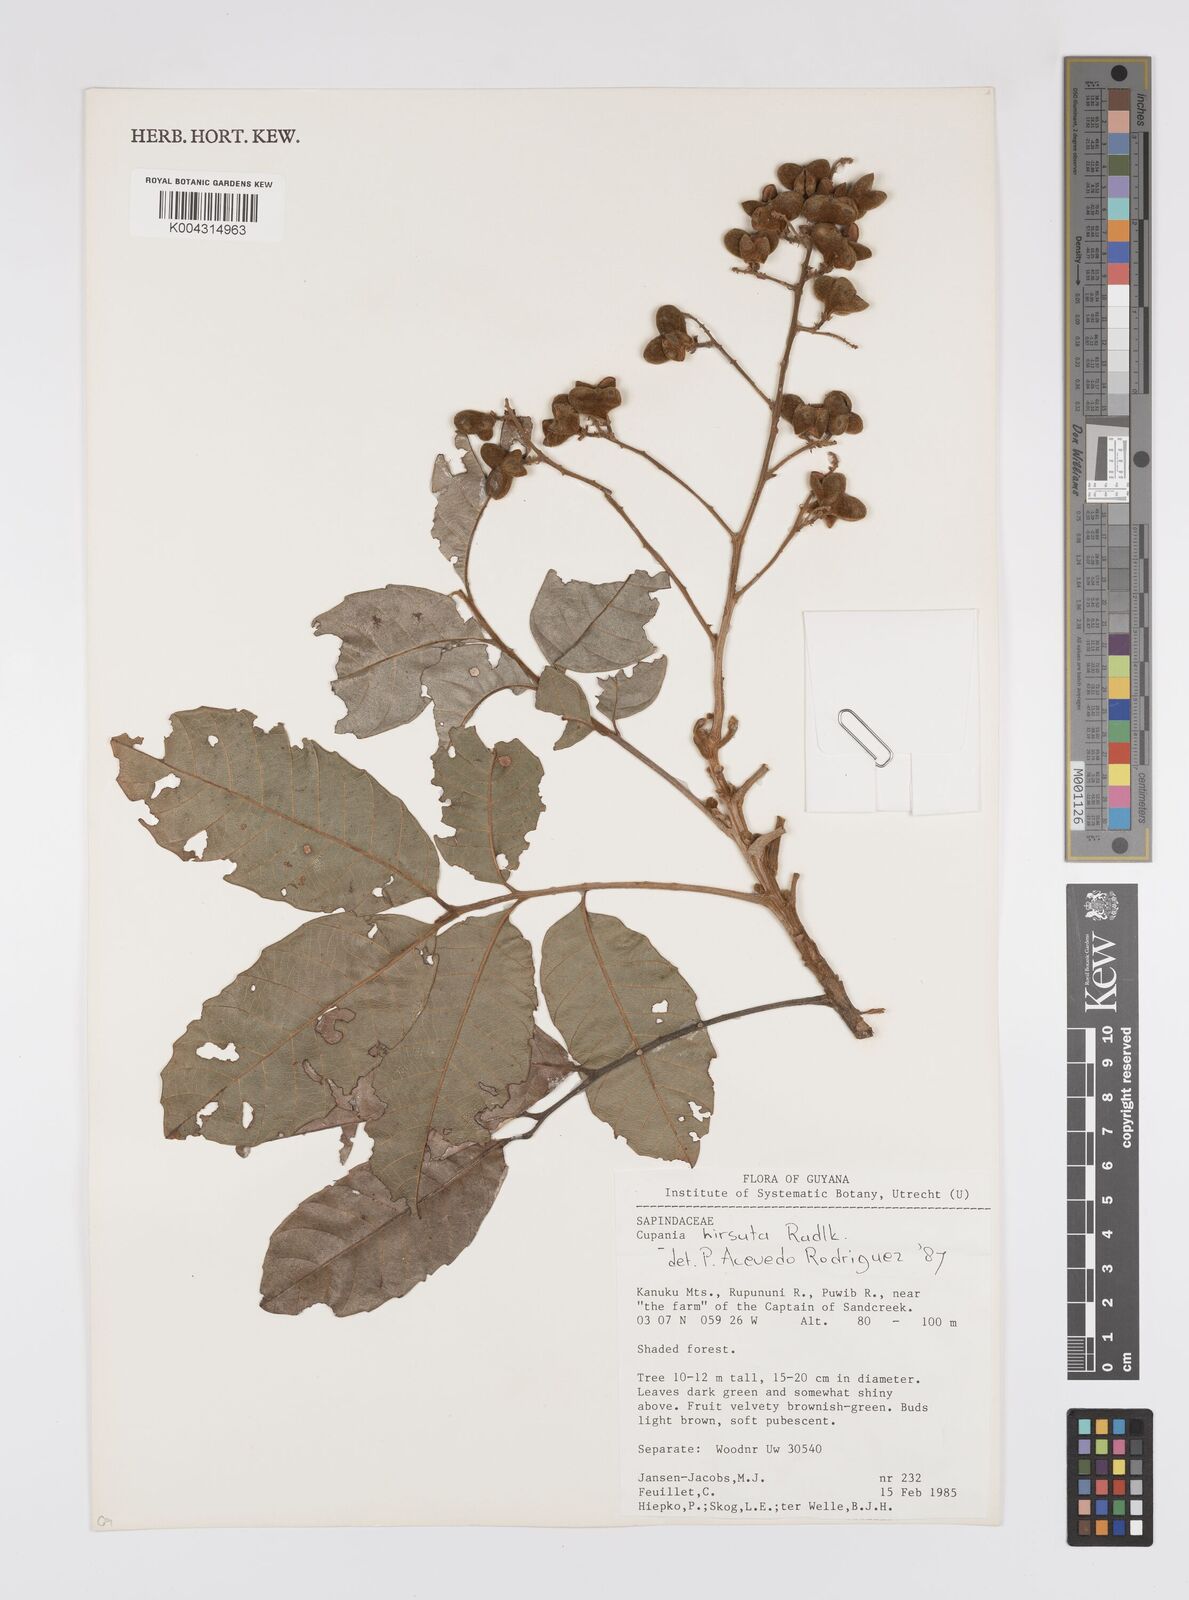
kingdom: Plantae
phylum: Tracheophyta
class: Magnoliopsida
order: Sapindales
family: Sapindaceae
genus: Cupania
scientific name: Cupania
